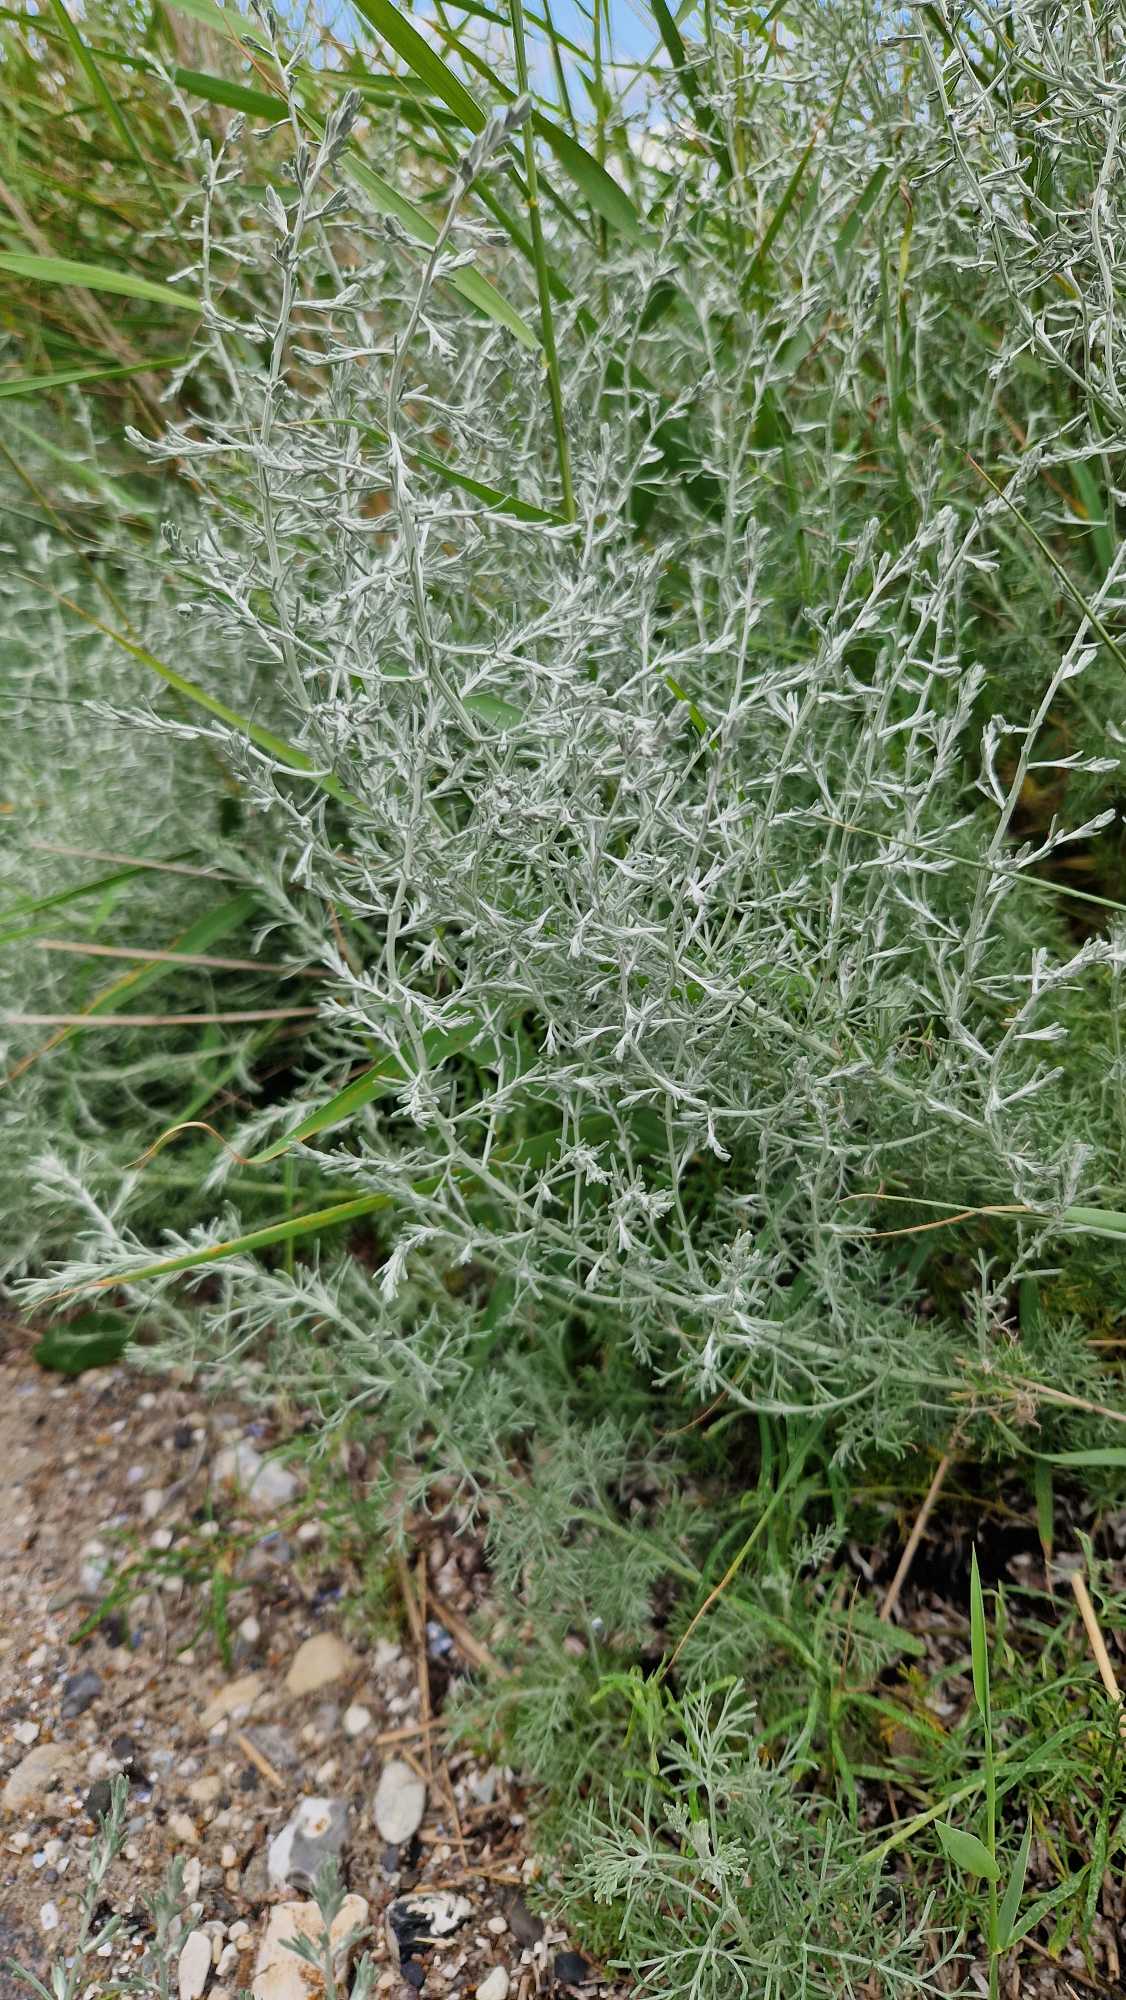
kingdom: Plantae
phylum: Tracheophyta
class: Magnoliopsida
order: Asterales
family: Asteraceae
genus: Artemisia
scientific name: Artemisia maritima
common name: Strandmalurt
